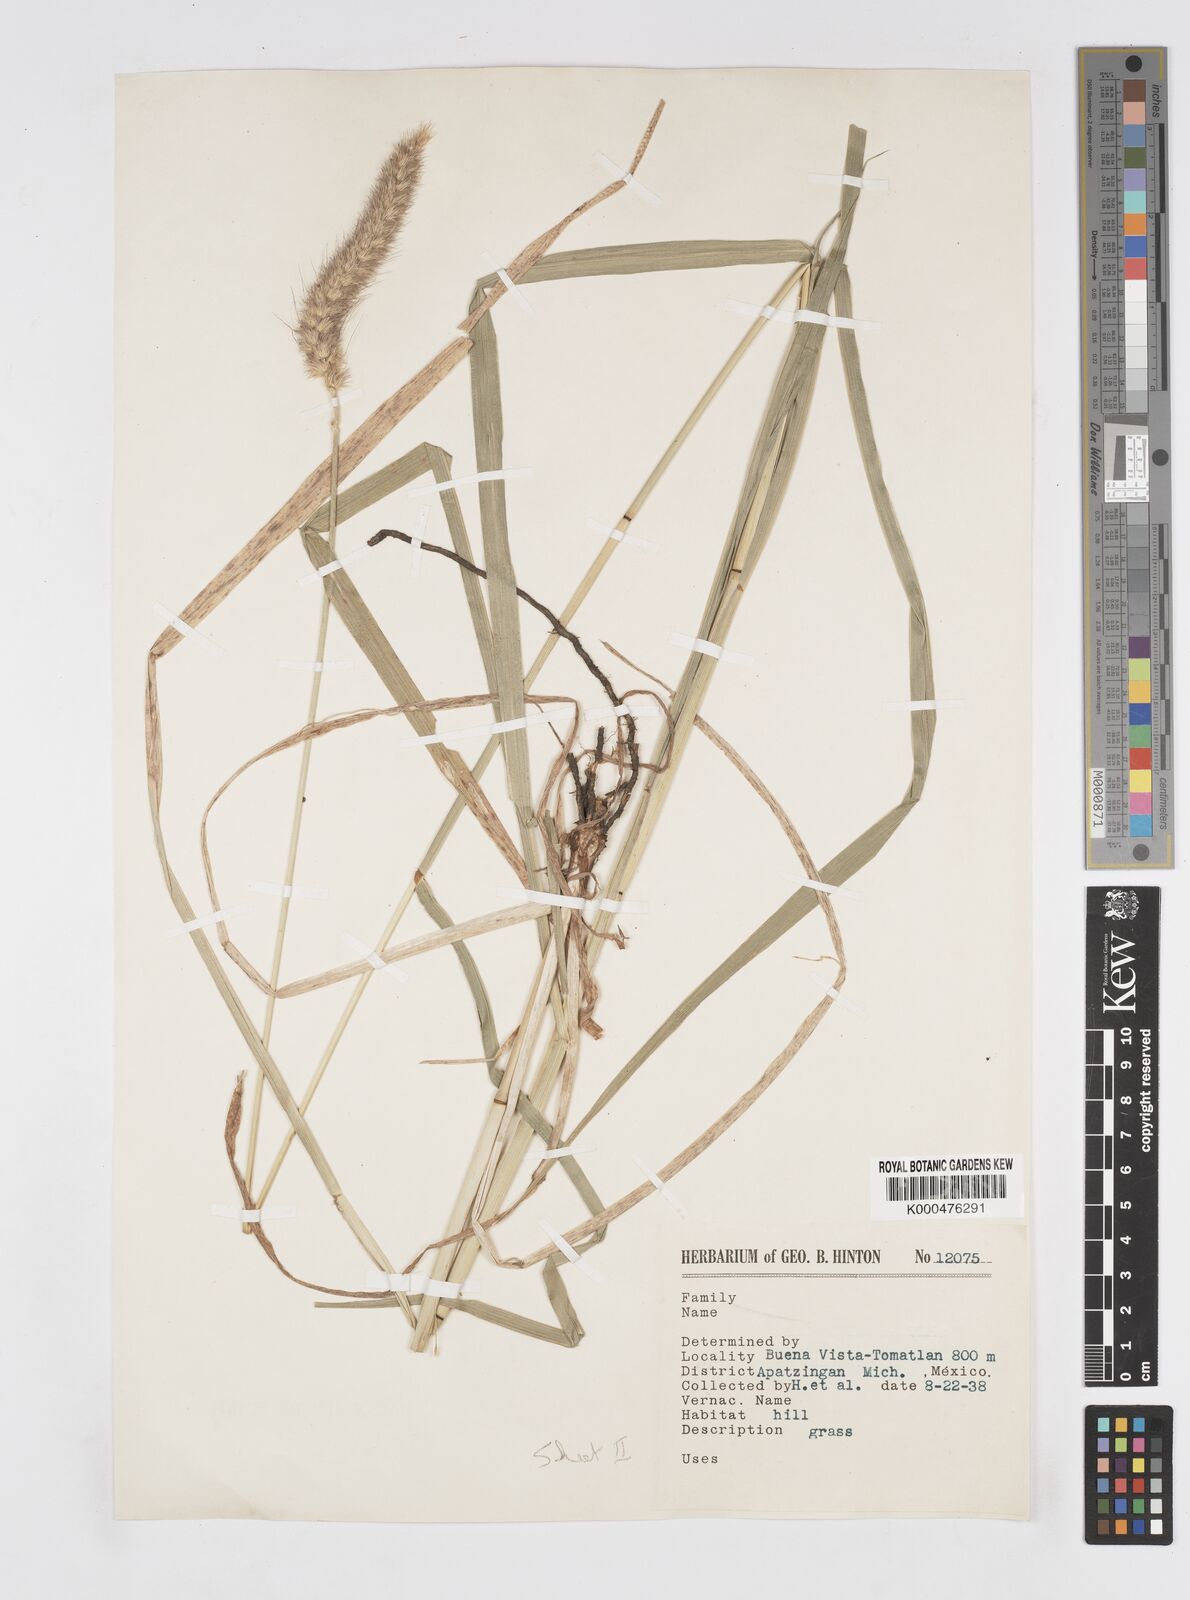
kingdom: Plantae
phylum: Tracheophyta
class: Liliopsida
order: Poales
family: Poaceae
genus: Cenchrus
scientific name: Cenchrus multiflorus
